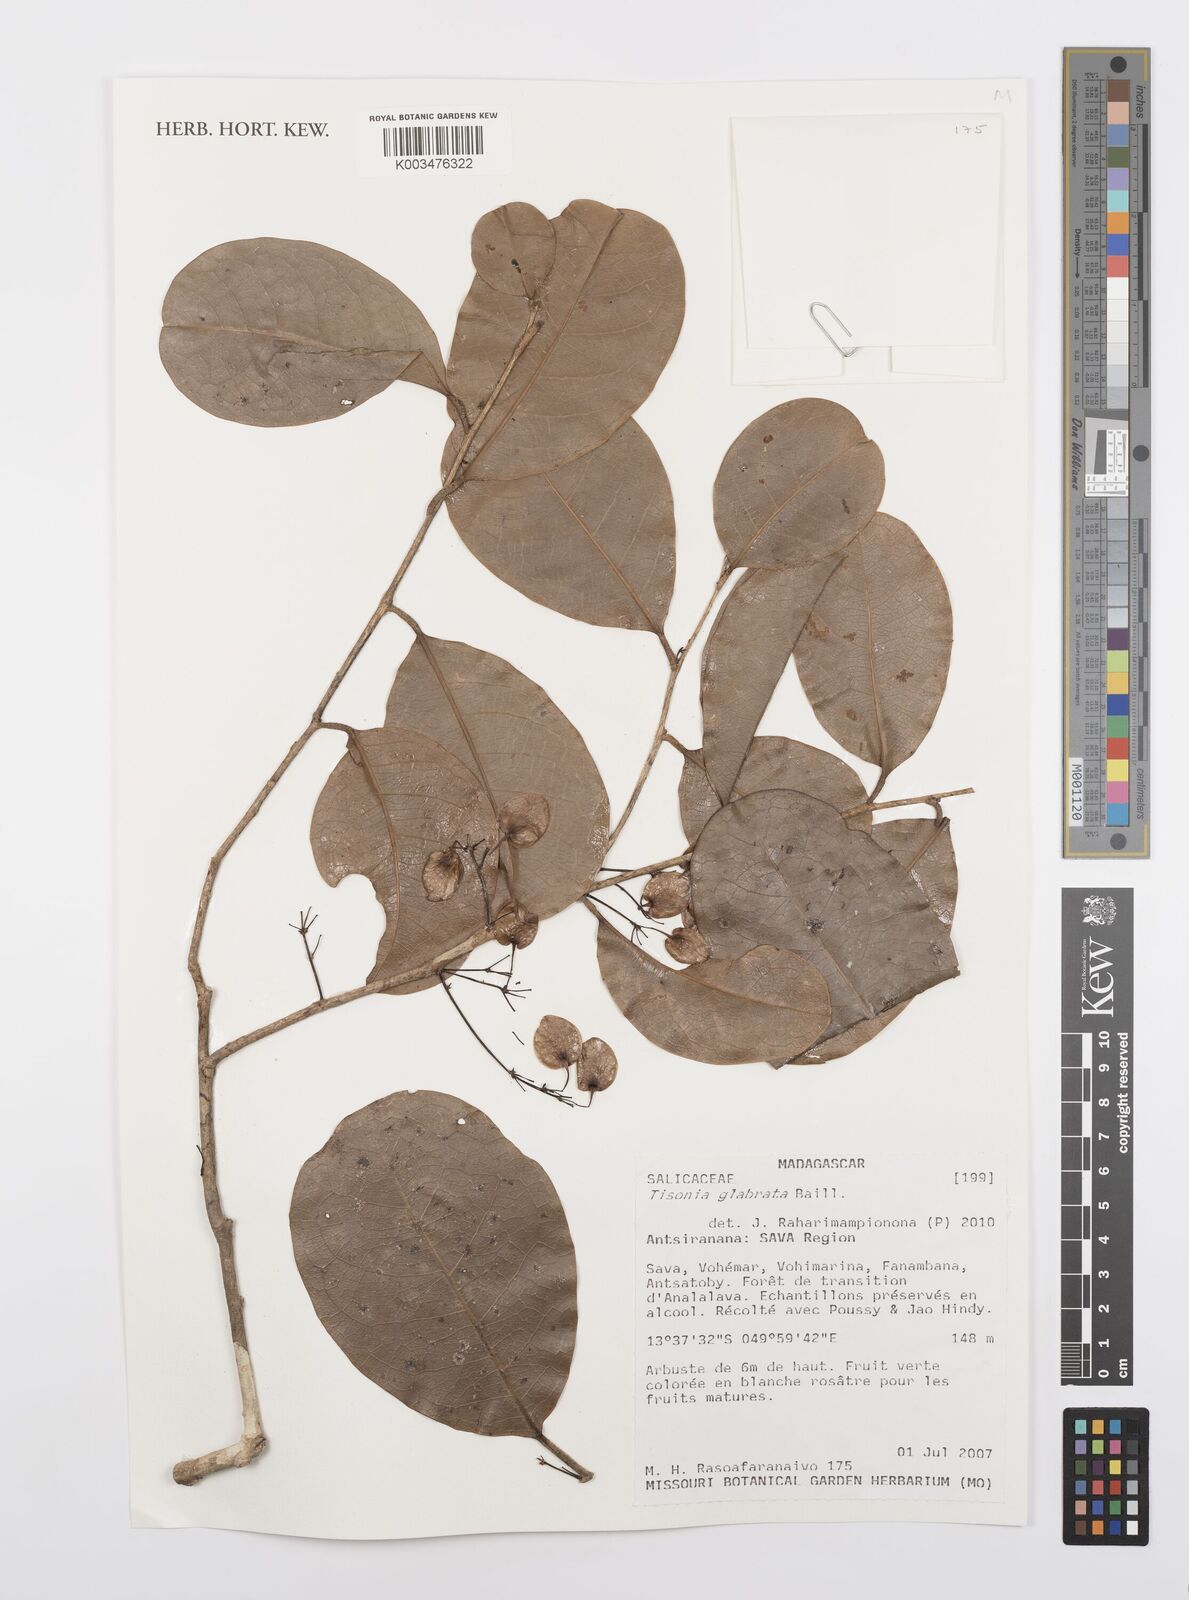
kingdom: Plantae
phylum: Tracheophyta
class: Magnoliopsida
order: Malpighiales
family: Salicaceae
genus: Tisonia
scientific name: Tisonia glabrata
